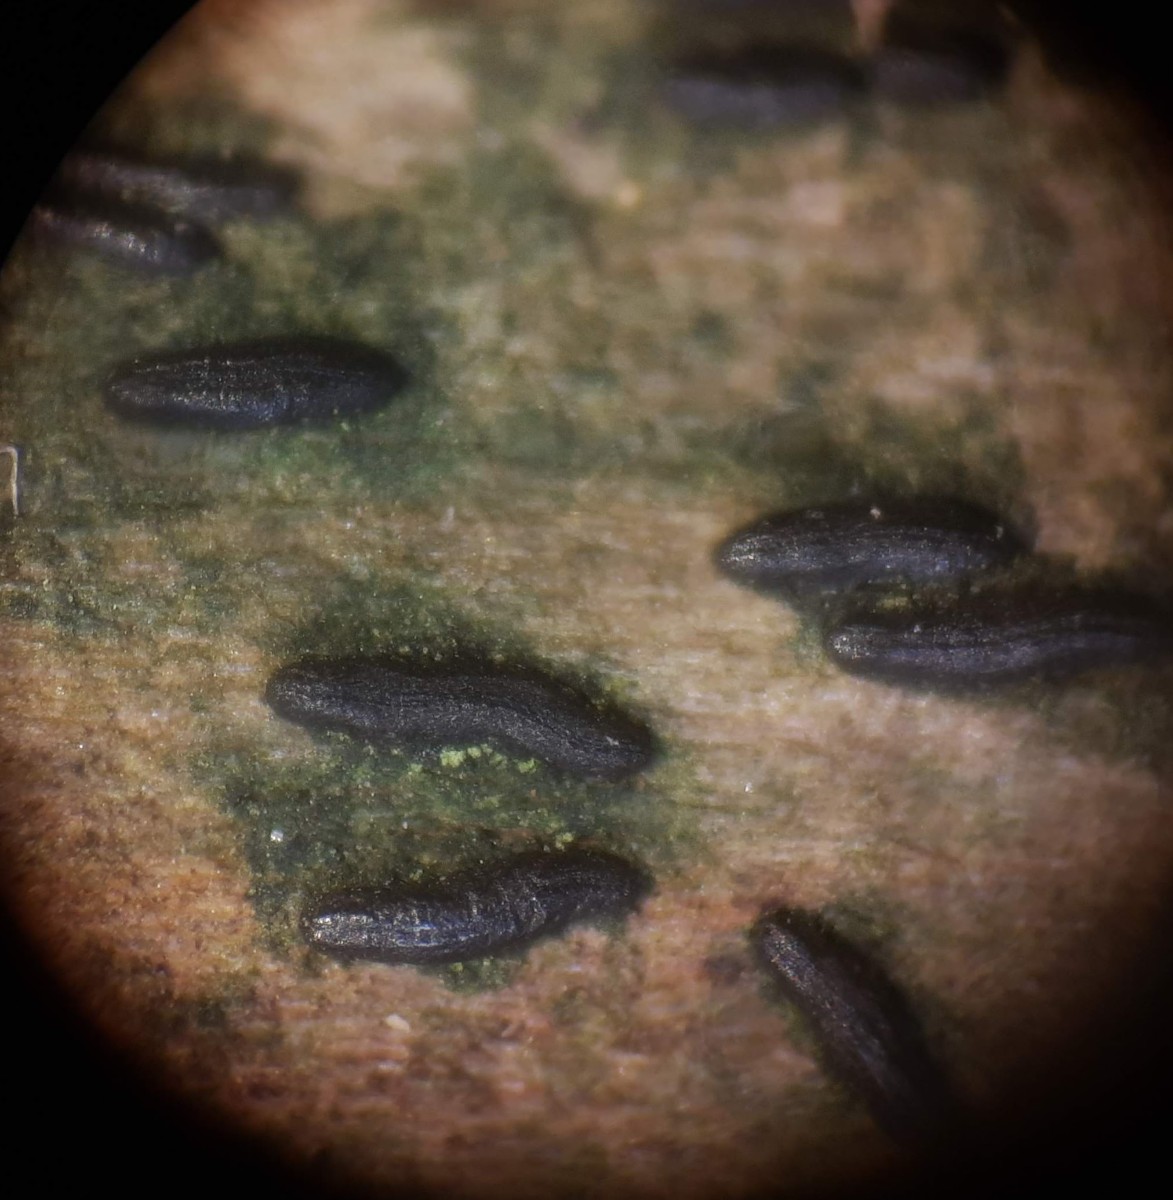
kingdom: Fungi
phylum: Ascomycota
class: Dothideomycetes
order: Hysteriales
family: Hysteriaceae
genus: Hysterium
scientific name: Hysterium acuminatum
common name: almindelig kulmund
